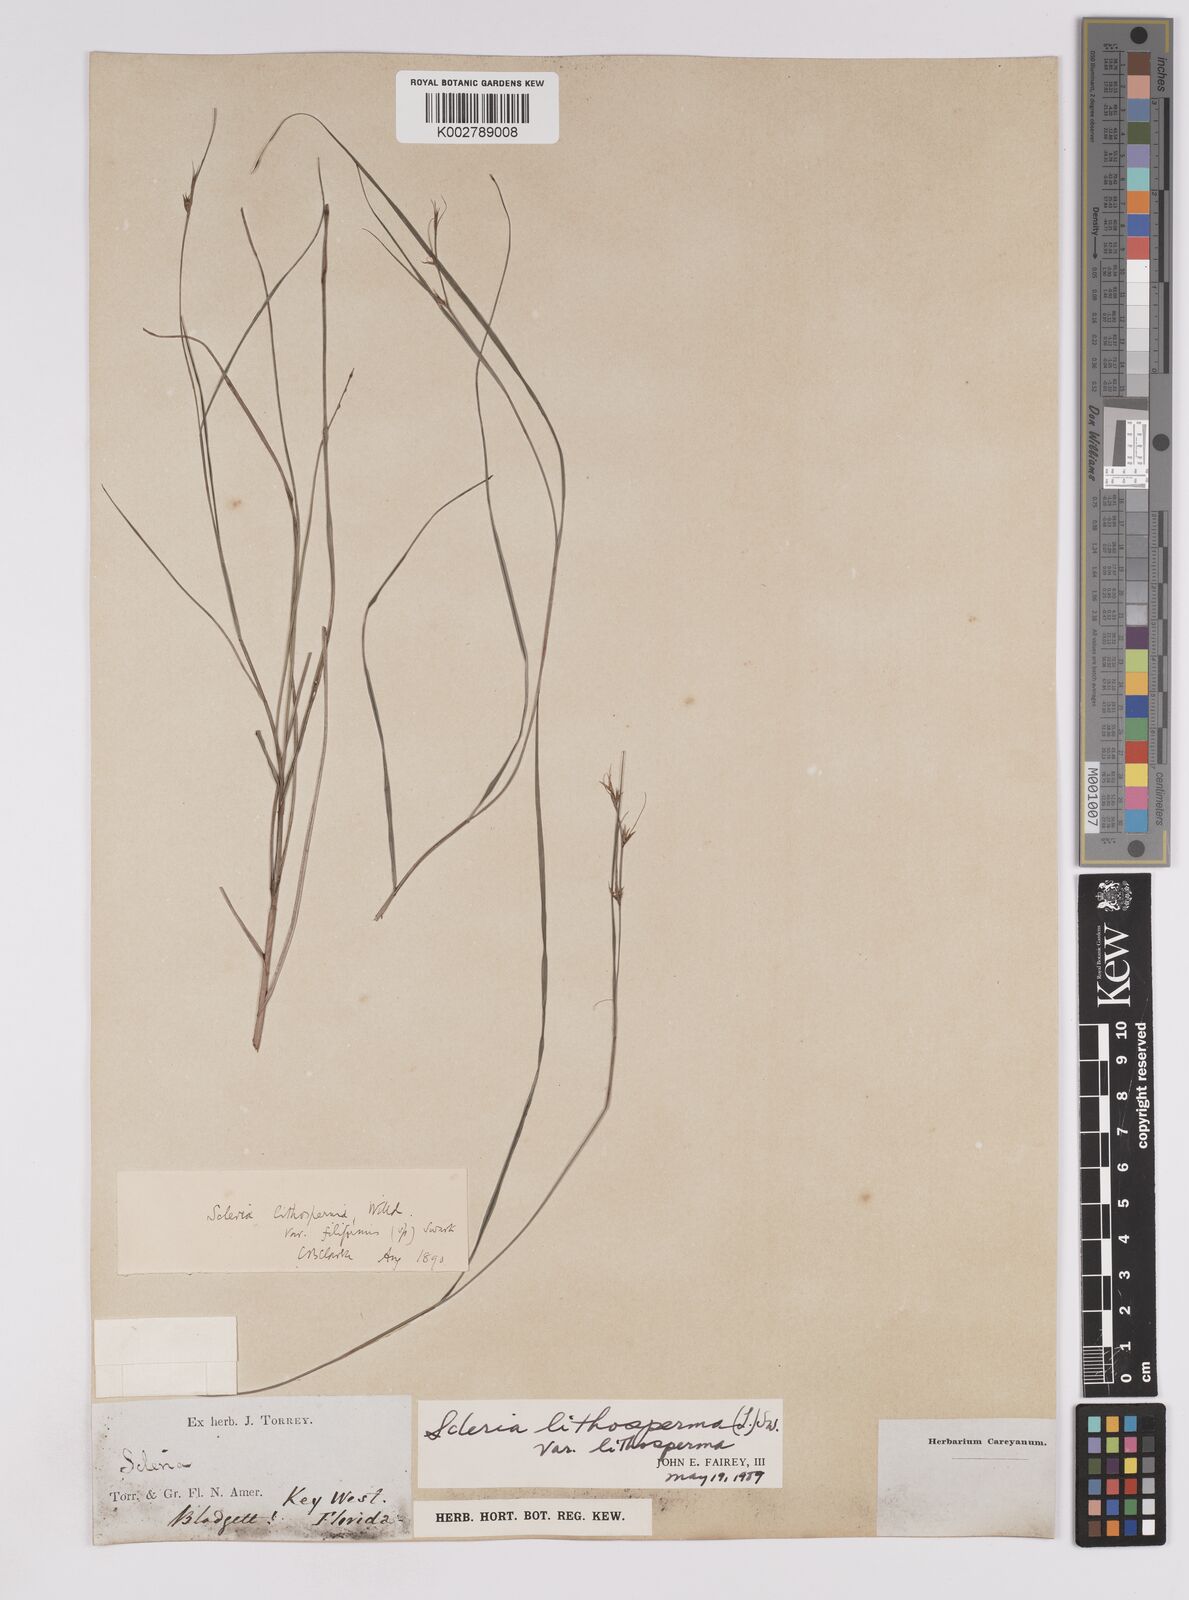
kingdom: Plantae
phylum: Tracheophyta
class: Liliopsida
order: Poales
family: Cyperaceae
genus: Scleria
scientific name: Scleria lithosperma
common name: Florida keys nut-rush
